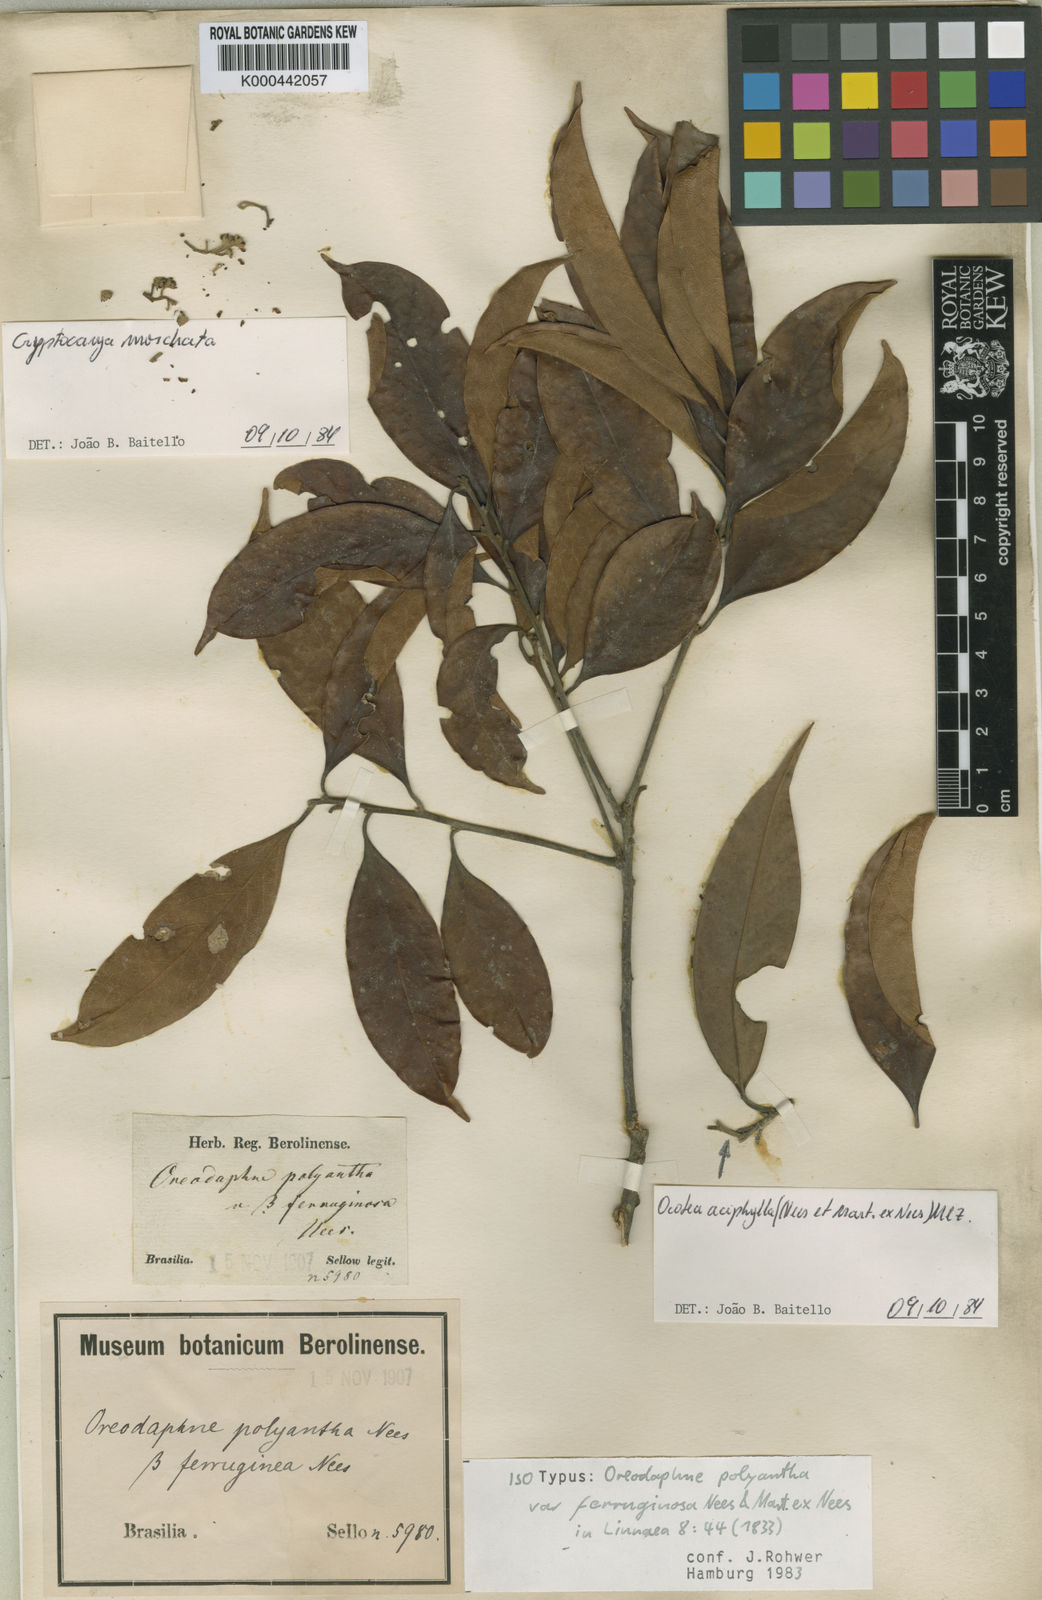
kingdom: Plantae
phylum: Tracheophyta
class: Magnoliopsida
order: Laurales
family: Lauraceae
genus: Ocotea
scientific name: Ocotea polyantha
